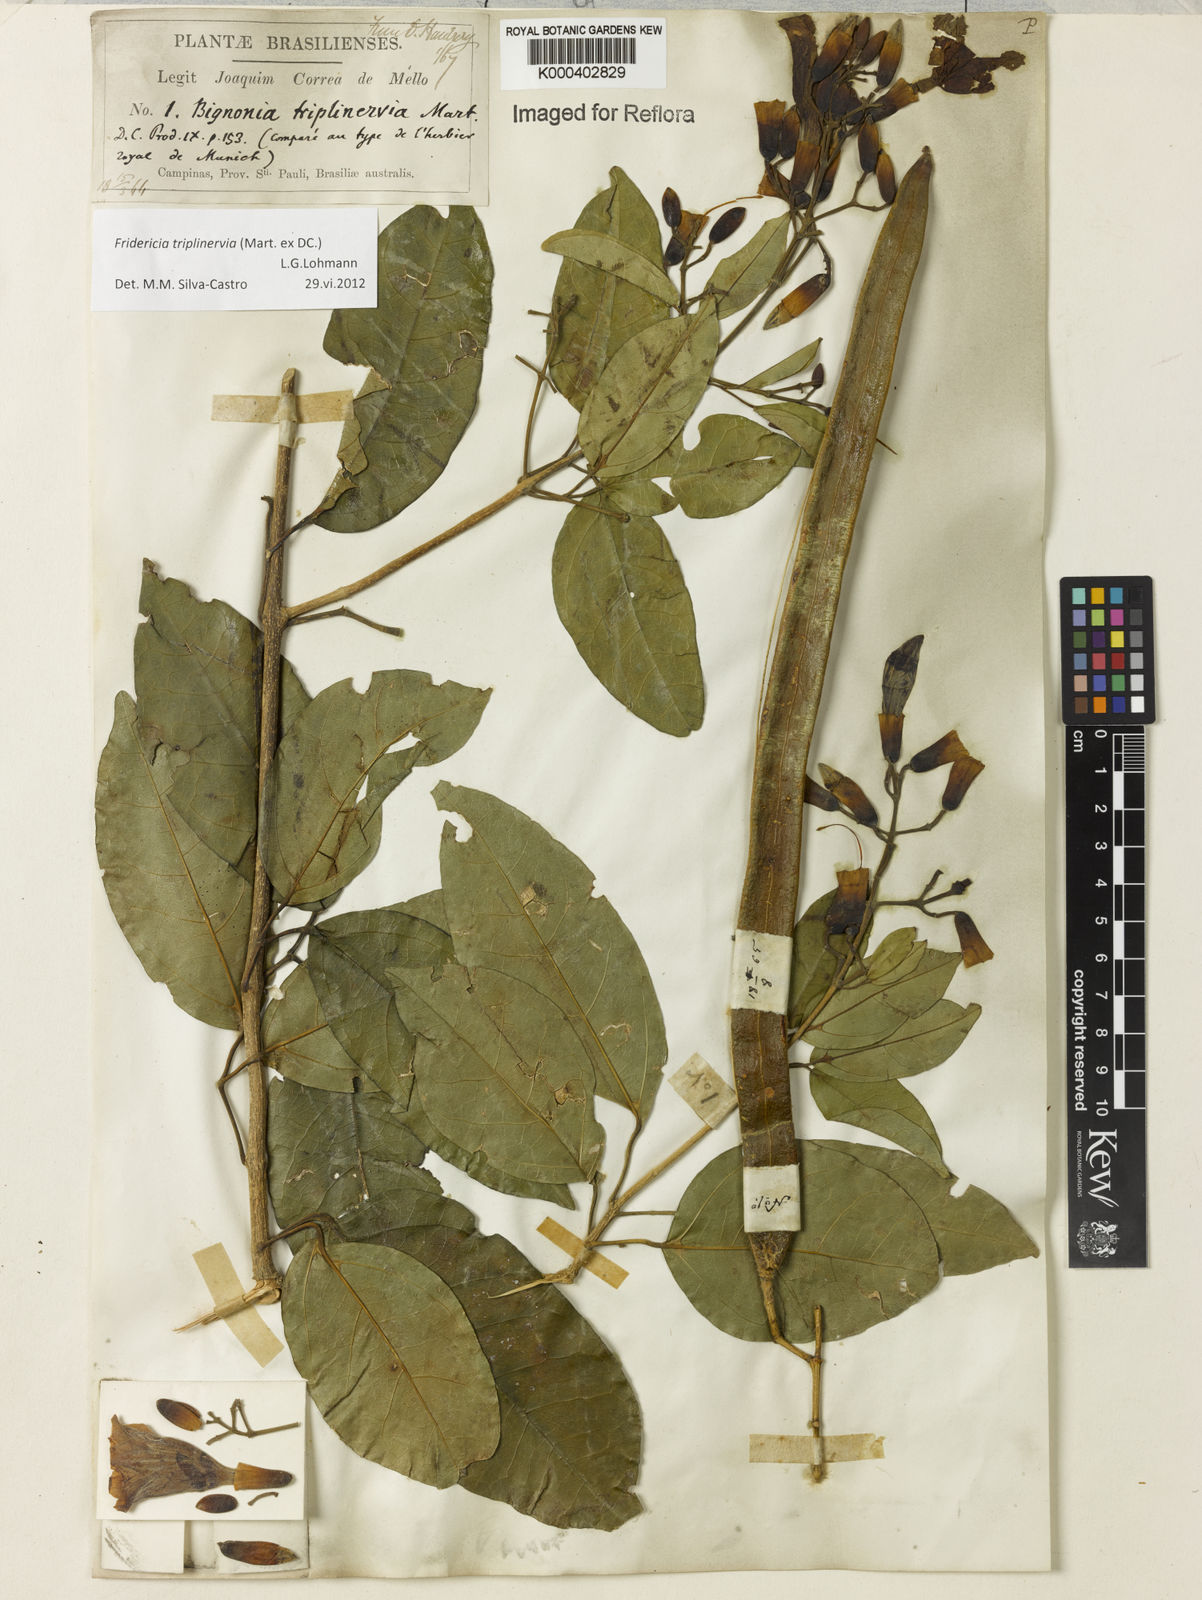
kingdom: Plantae
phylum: Tracheophyta
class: Magnoliopsida
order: Lamiales
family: Bignoniaceae
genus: Fridericia
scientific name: Fridericia triplinervia
